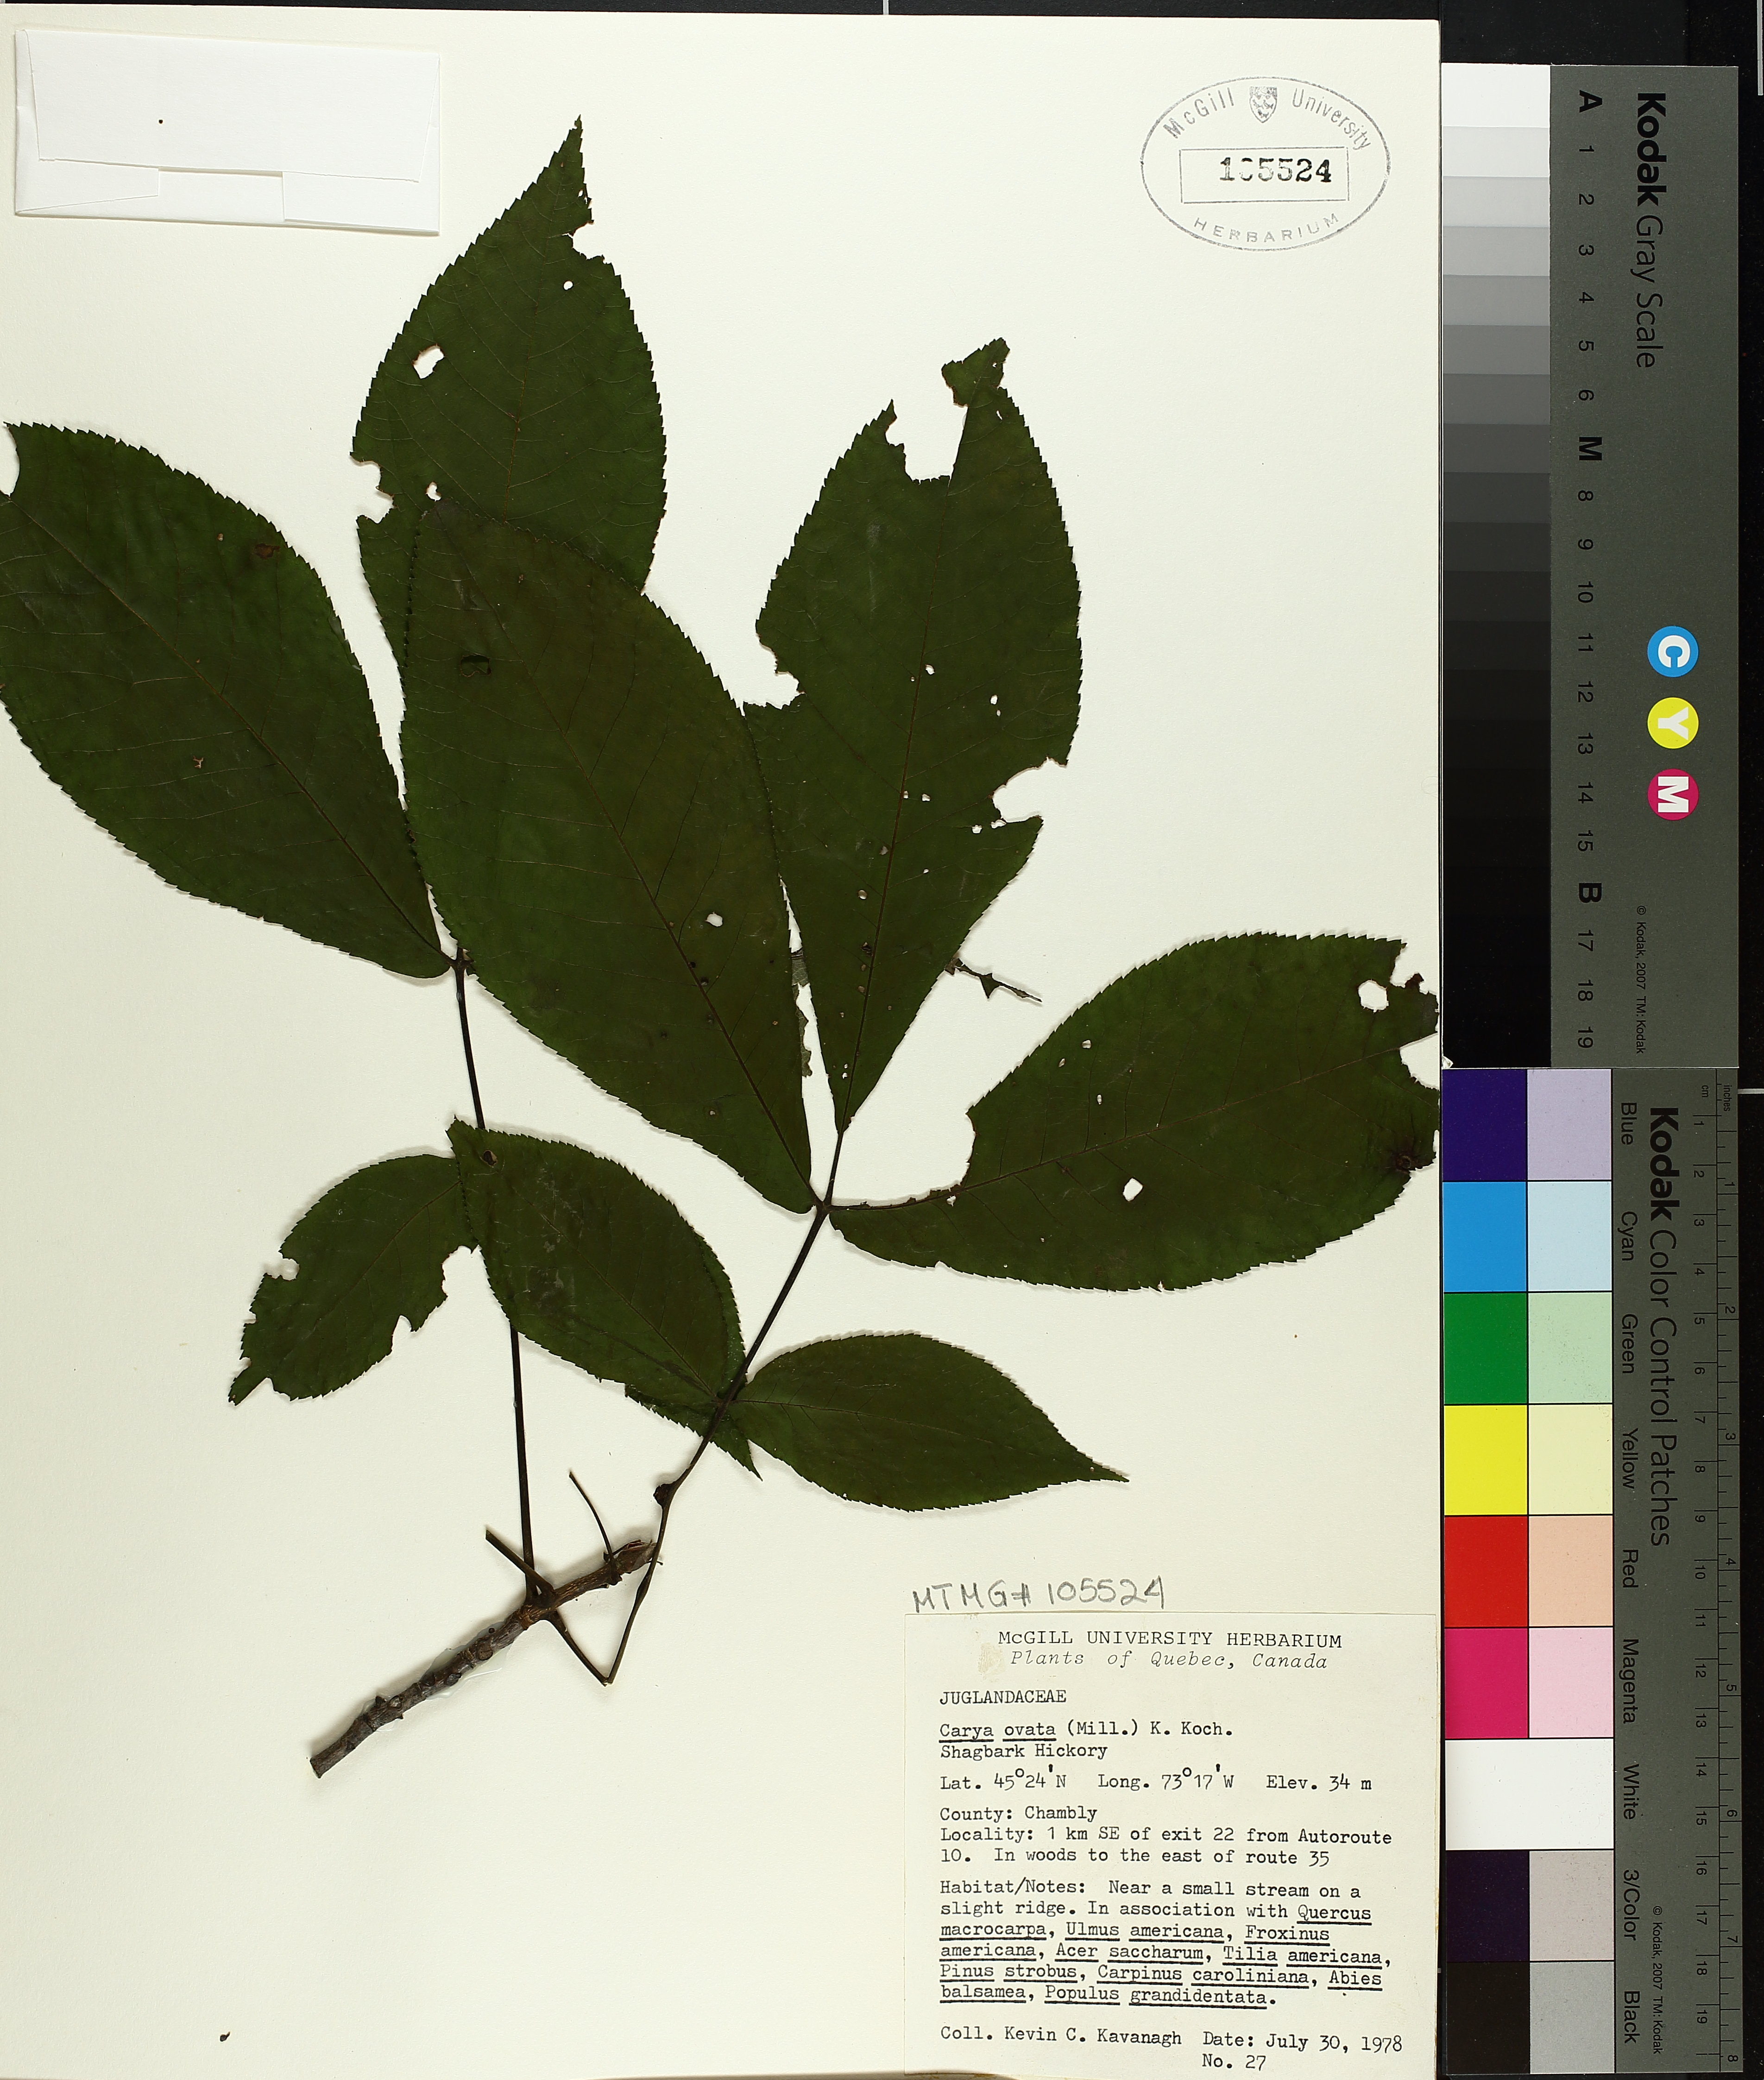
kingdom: Plantae
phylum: Tracheophyta
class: Magnoliopsida
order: Fagales
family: Juglandaceae
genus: Carya
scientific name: Carya ovata
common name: Shagbark hickory
